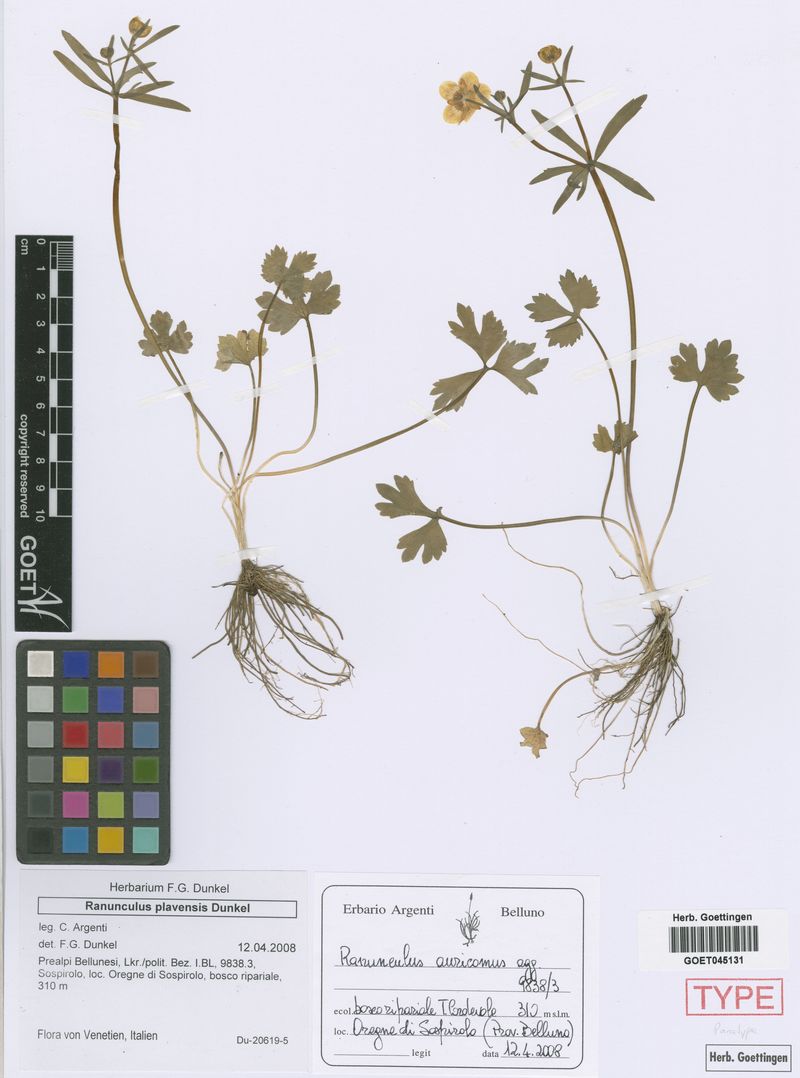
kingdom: Plantae
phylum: Tracheophyta
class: Magnoliopsida
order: Ranunculales
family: Ranunculaceae
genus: Ranunculus
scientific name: Ranunculus plavensis
